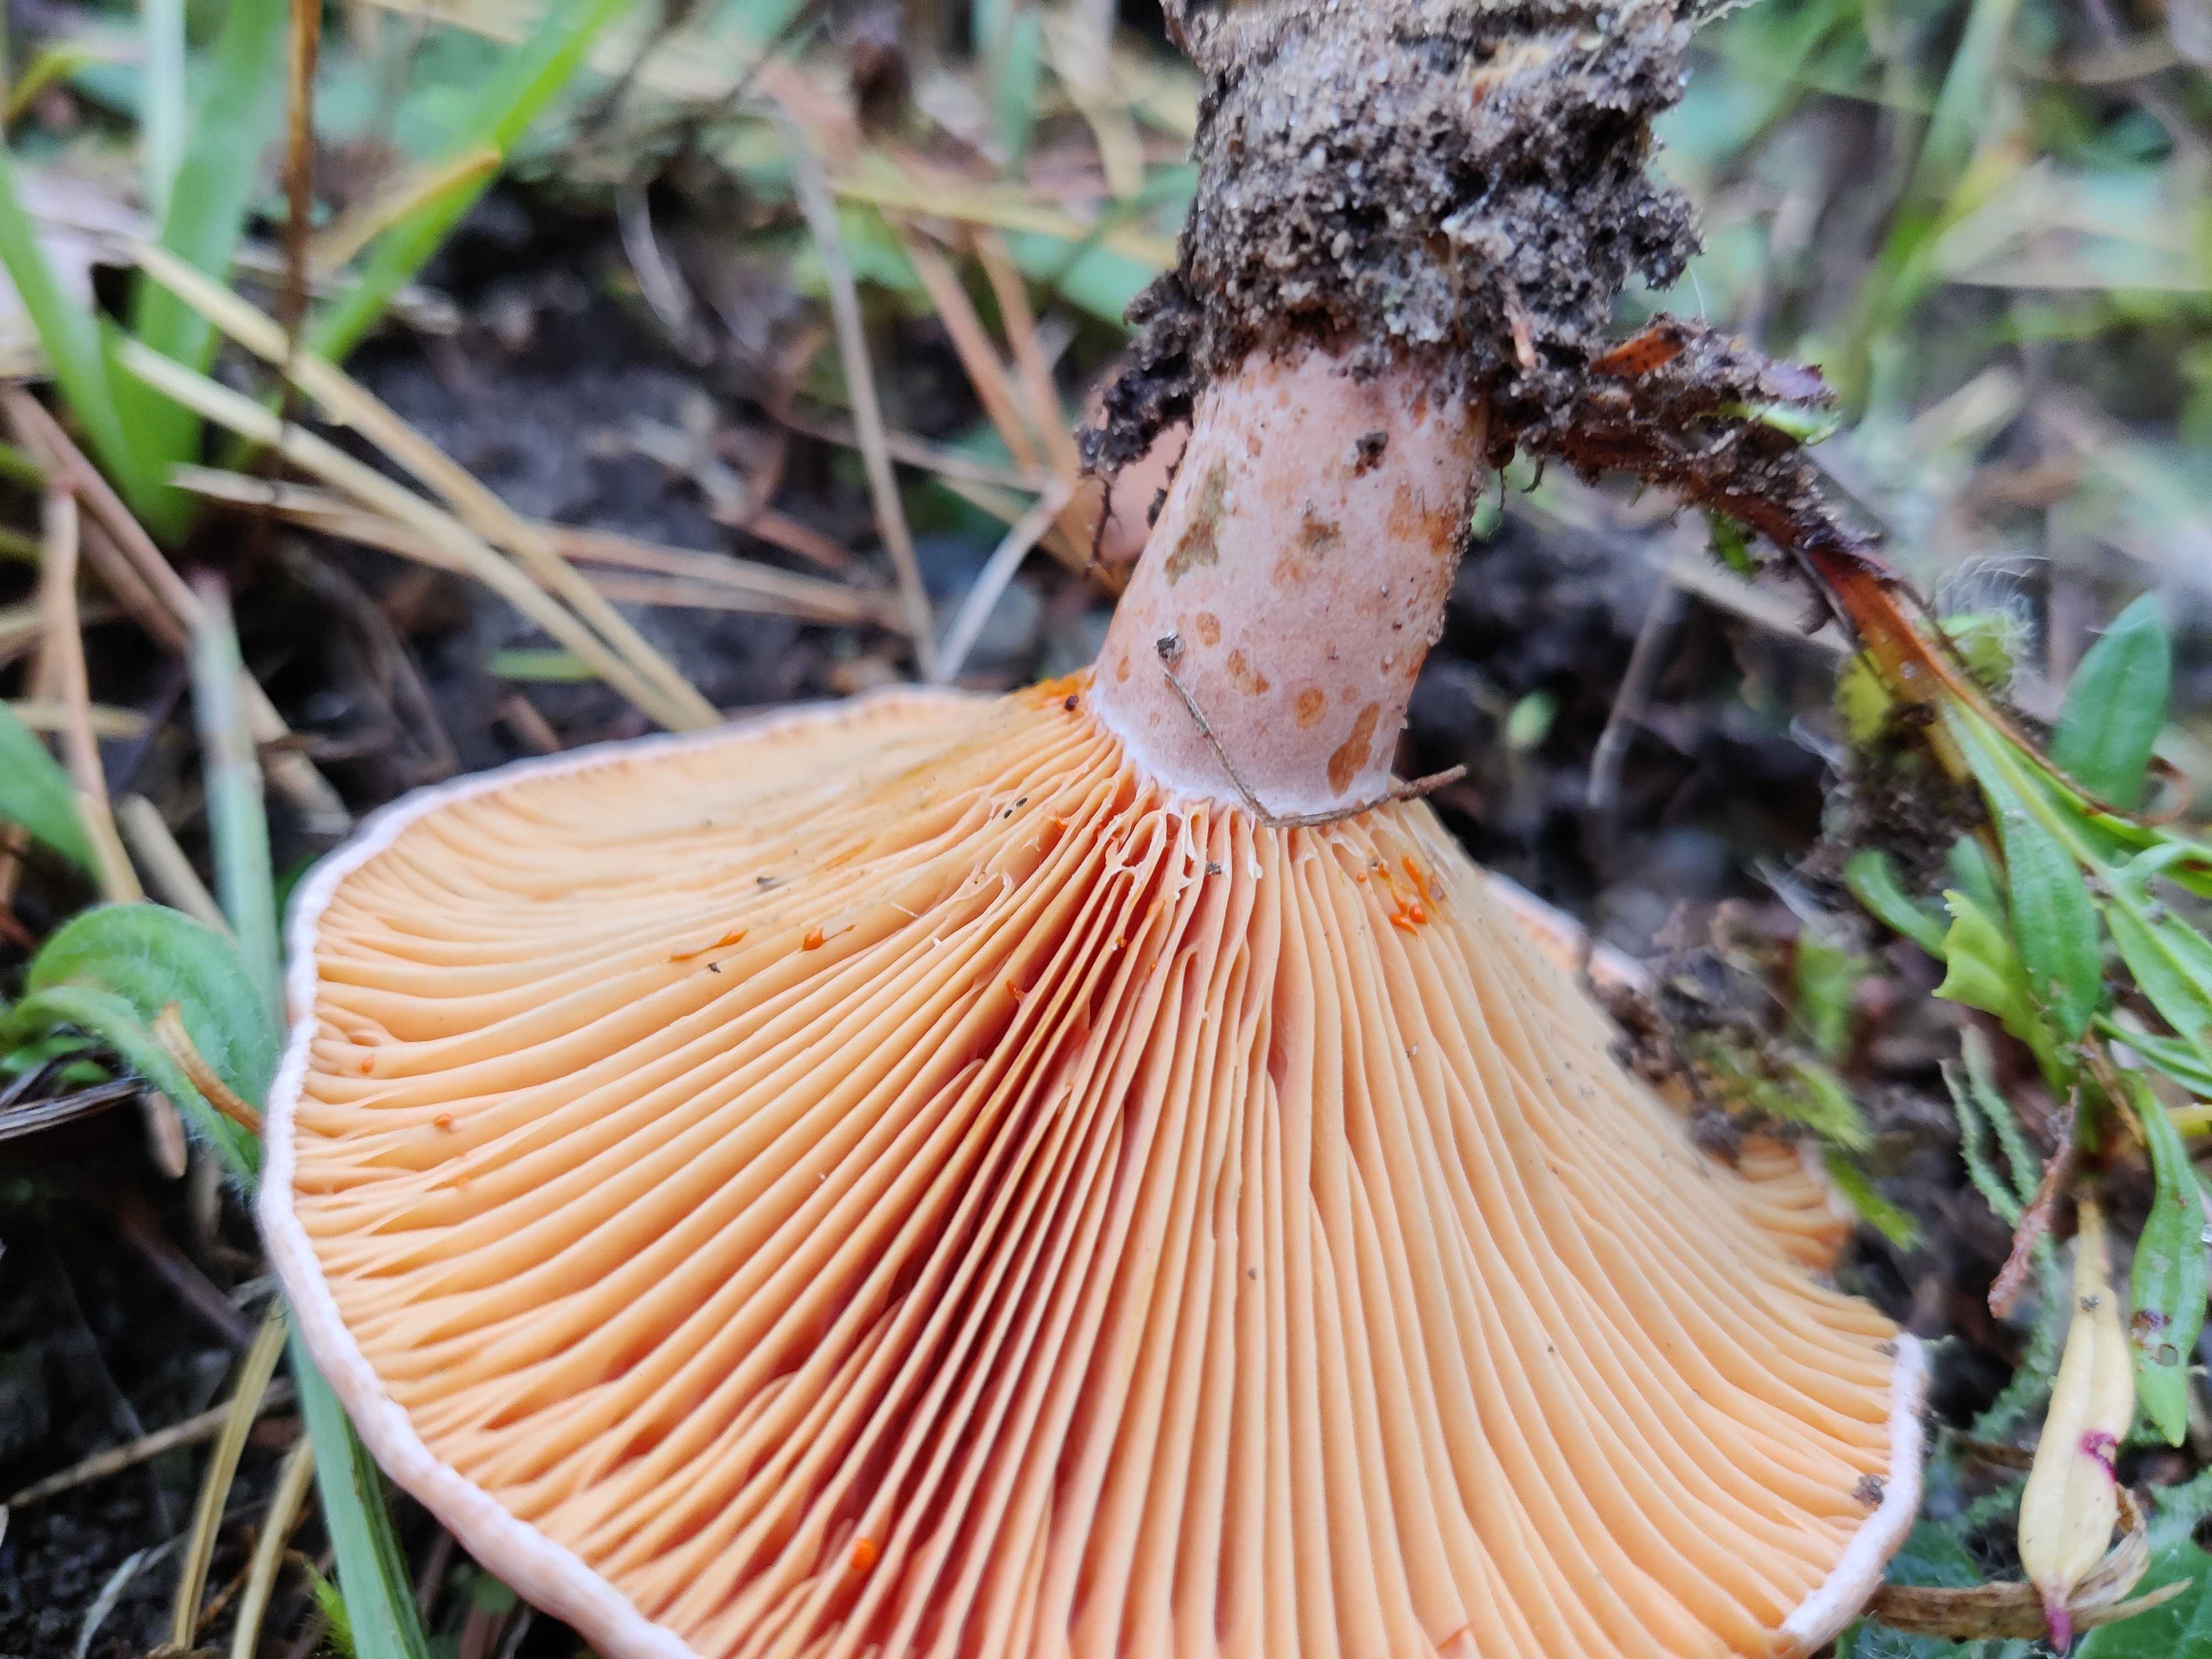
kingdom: Fungi
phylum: Basidiomycota
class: Agaricomycetes
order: Russulales
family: Russulaceae
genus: Lactarius
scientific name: Lactarius deliciosus
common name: velsmagende mælkehat
